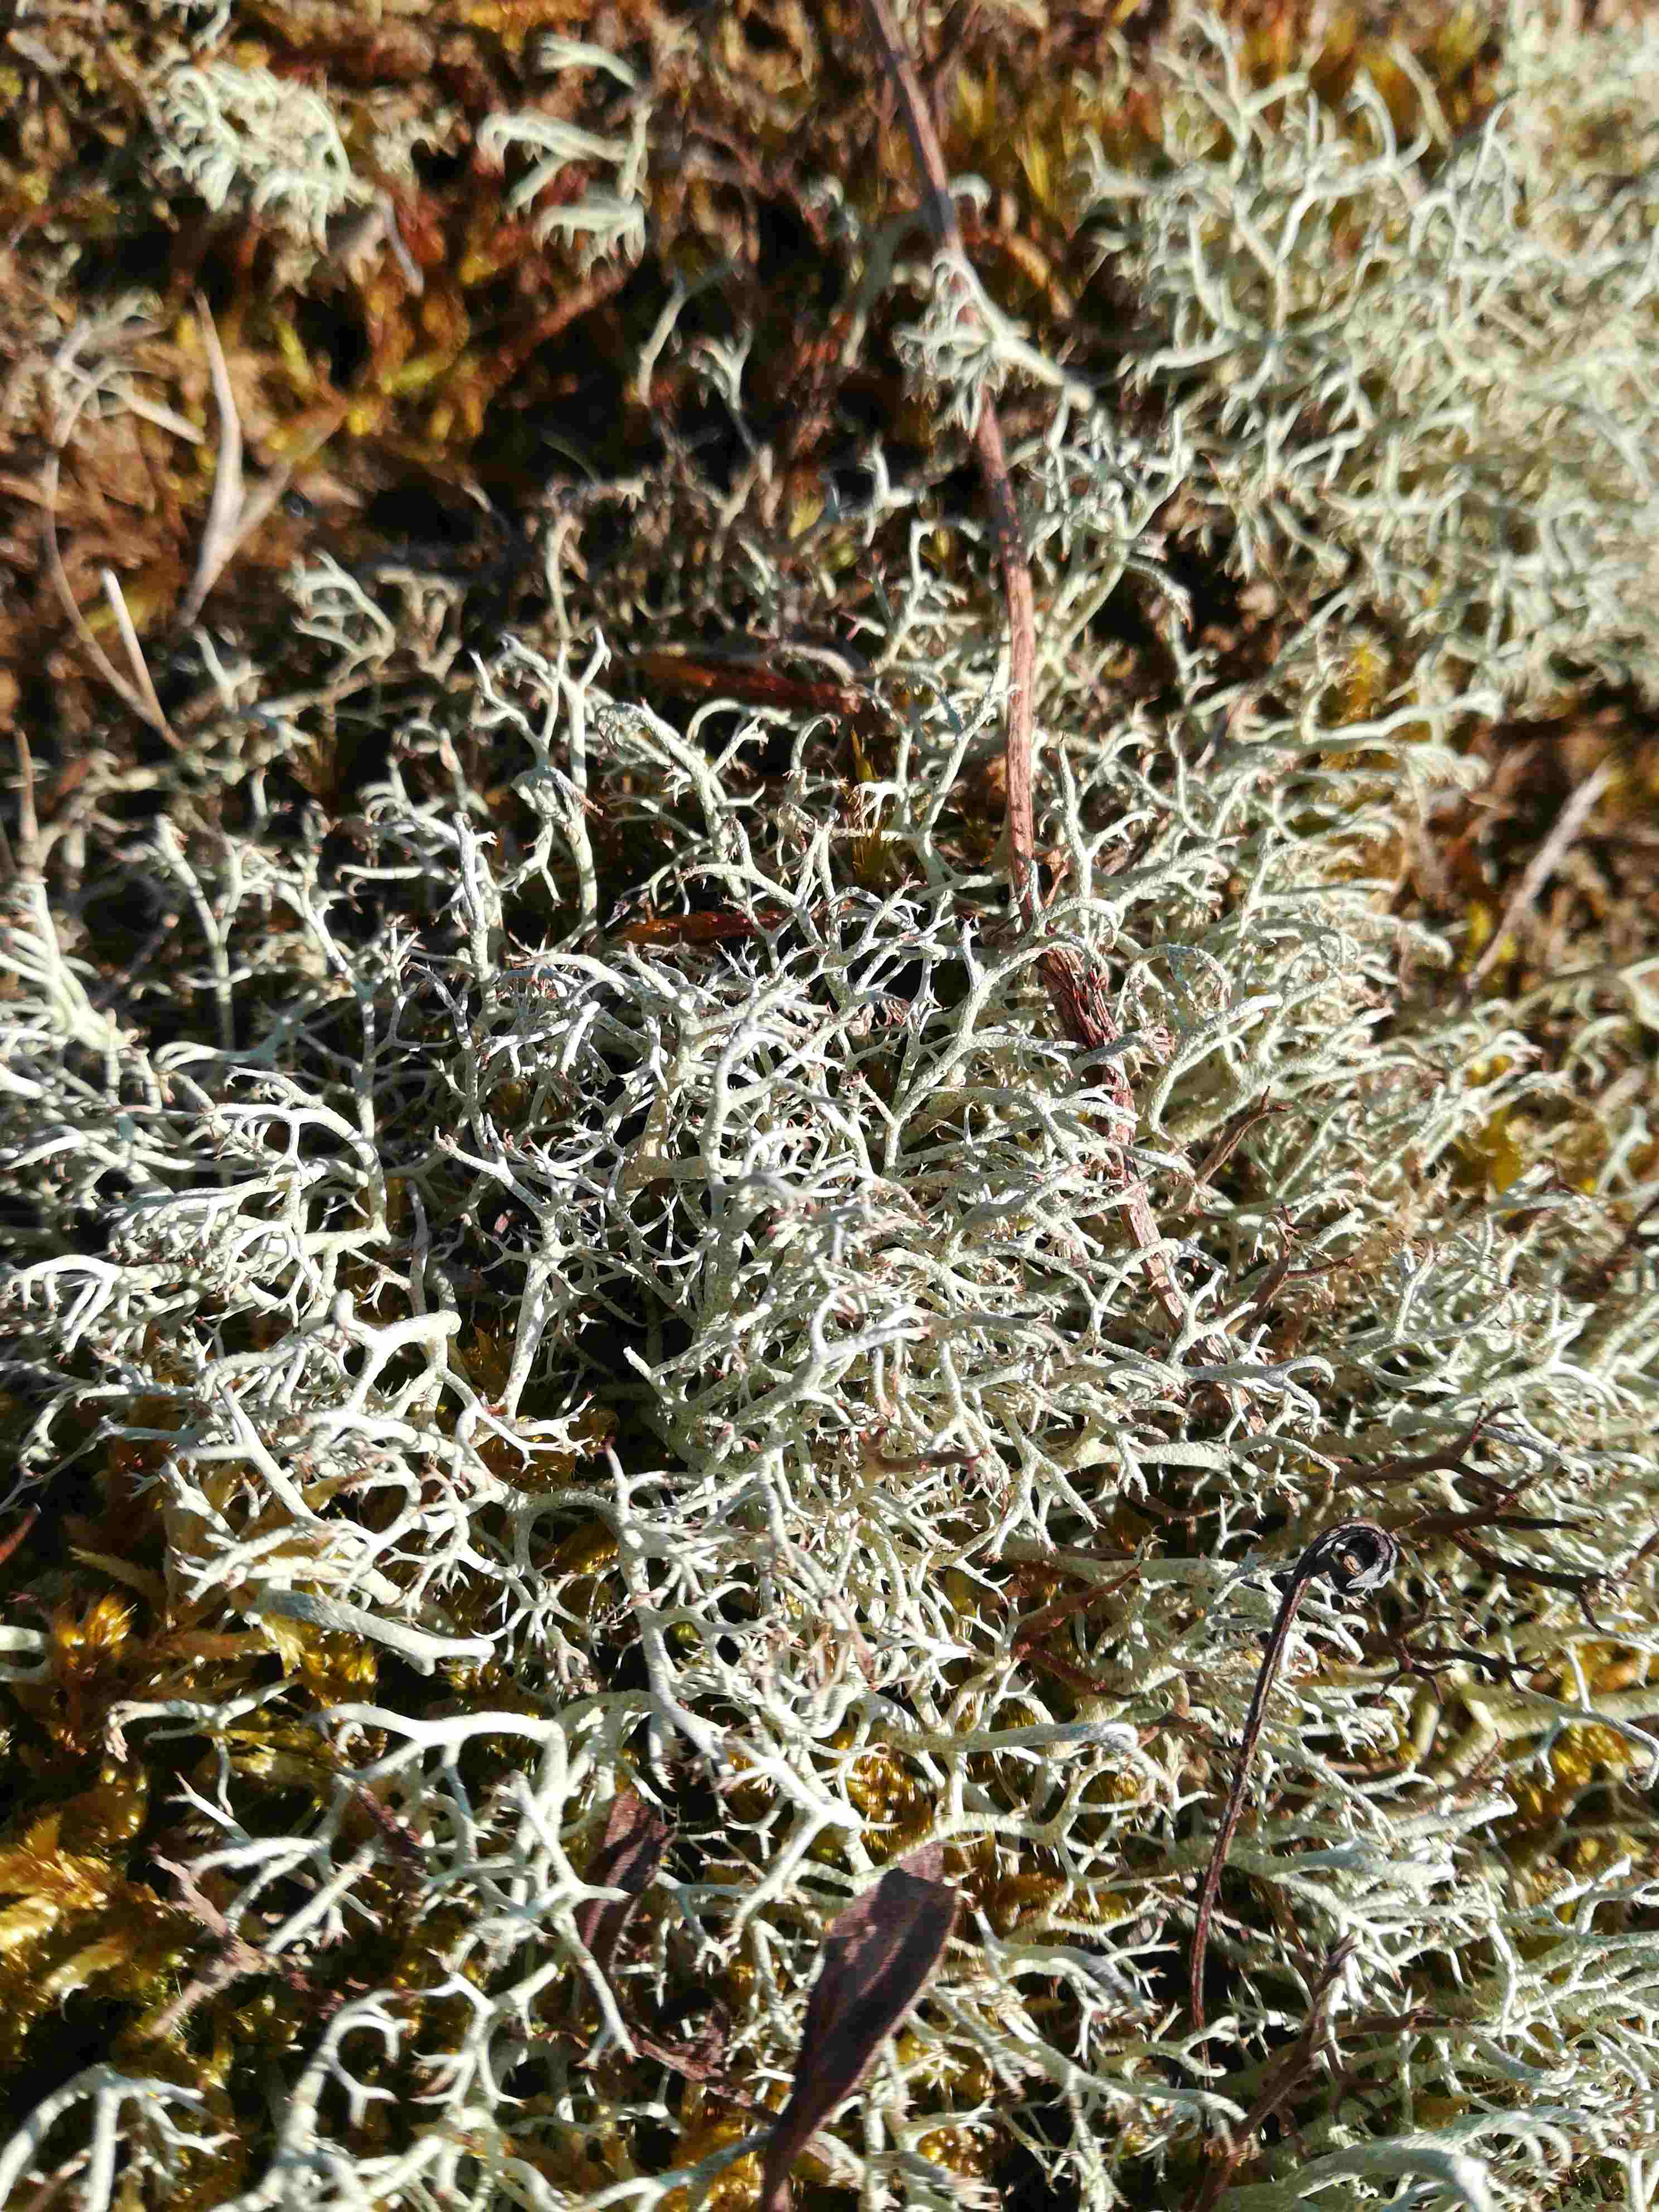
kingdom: Fungi
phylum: Ascomycota
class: Lecanoromycetes
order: Lecanorales
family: Cladoniaceae
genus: Cladonia
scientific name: Cladonia
